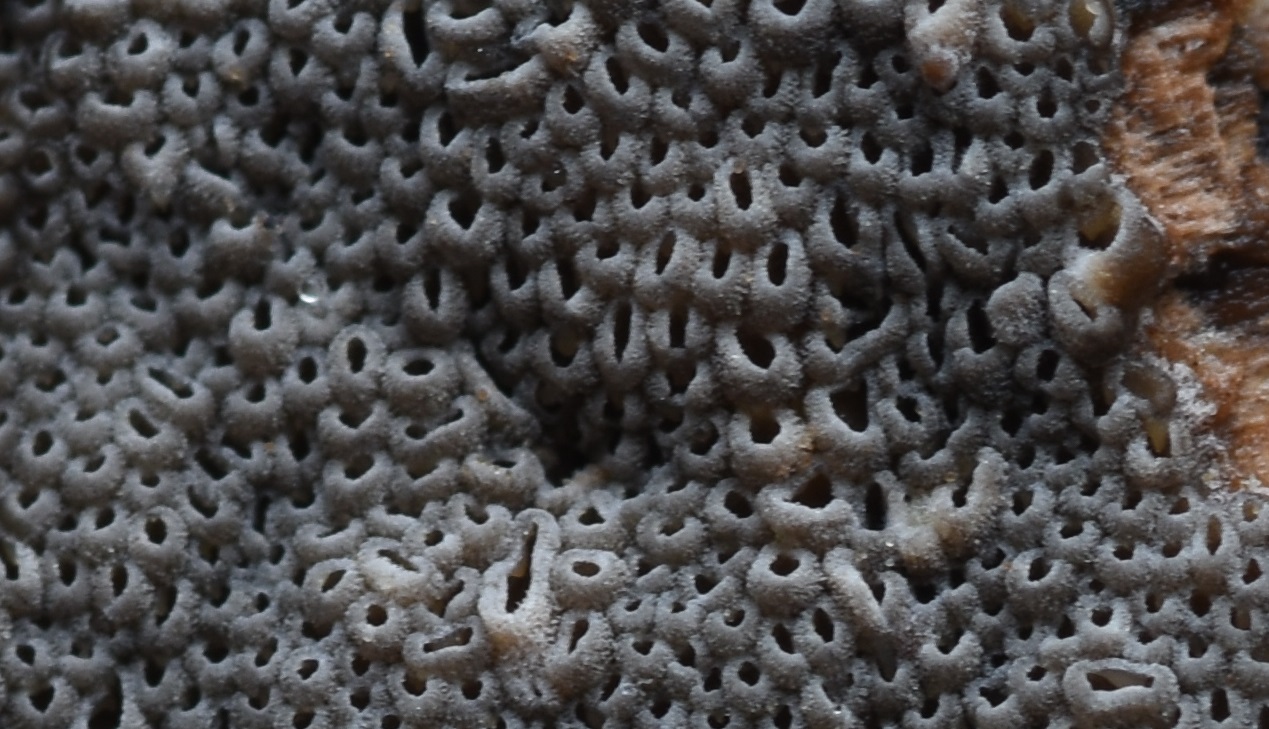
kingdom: Fungi
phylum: Basidiomycota
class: Agaricomycetes
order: Agaricales
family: Pleurotaceae
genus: Resupinatus
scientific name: Resupinatus poriaeformis
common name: tæpperør
